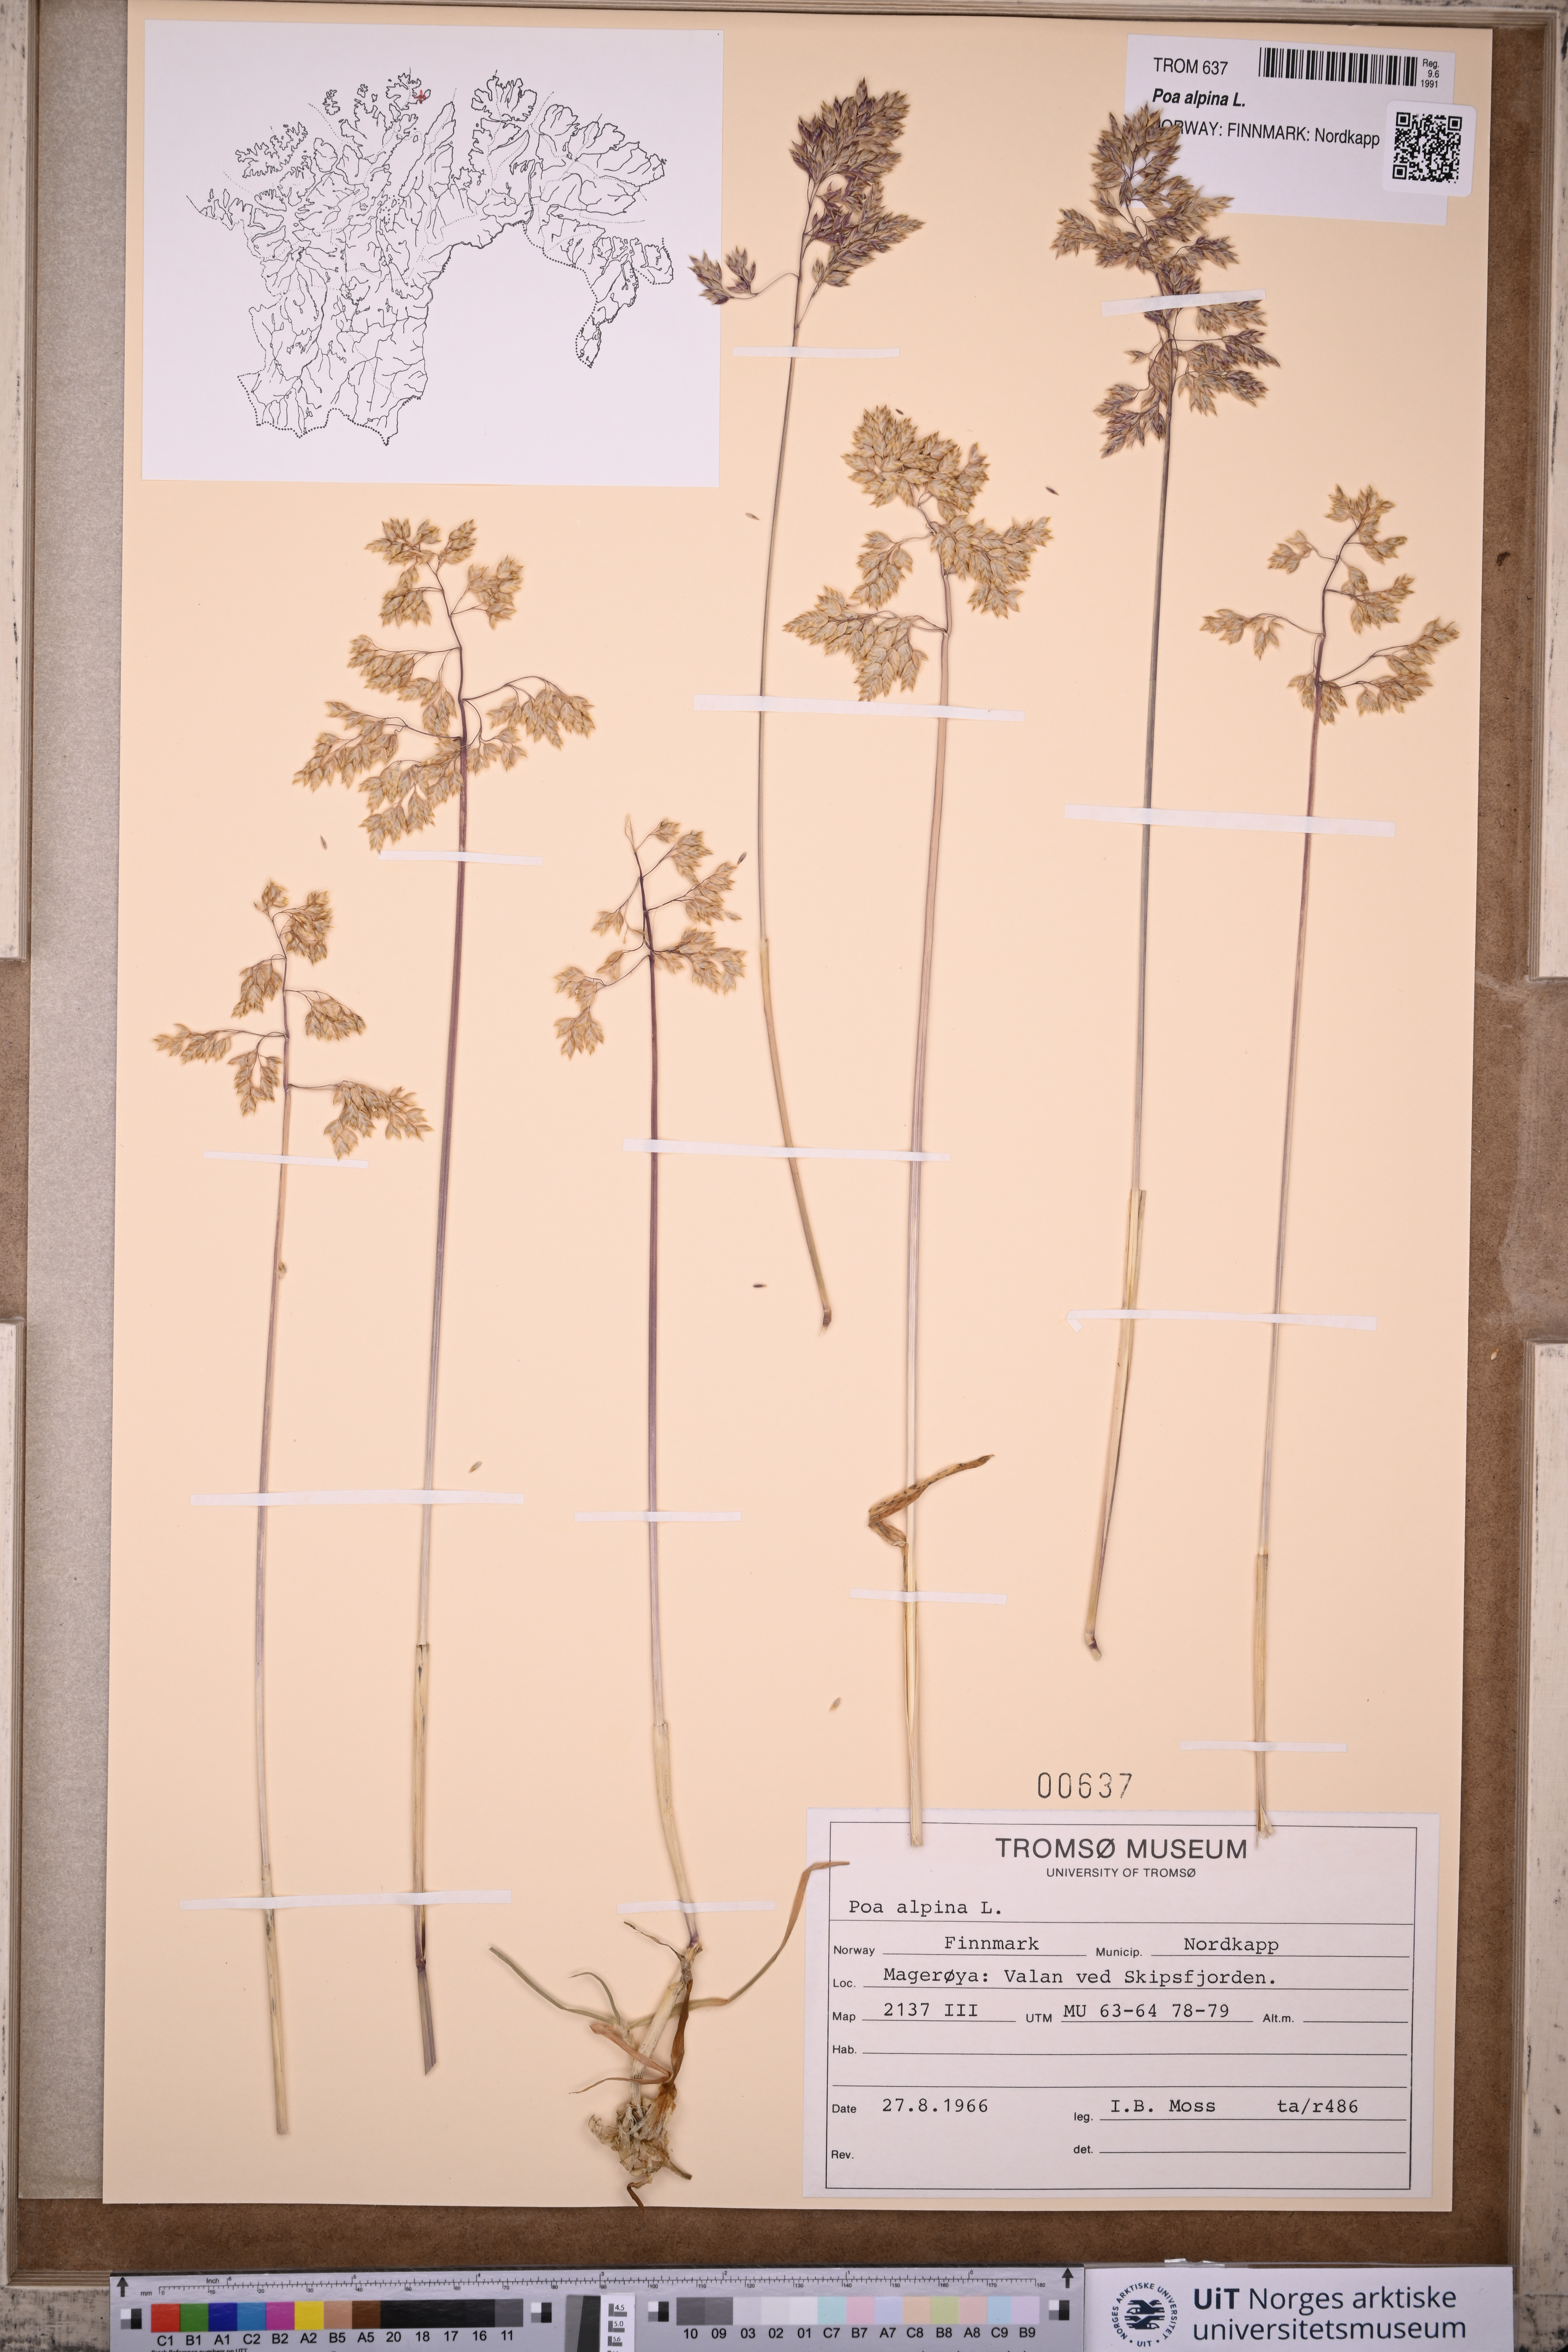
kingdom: Plantae
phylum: Tracheophyta
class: Liliopsida
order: Poales
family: Poaceae
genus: Poa
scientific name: Poa alpina
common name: Alpine bluegrass
